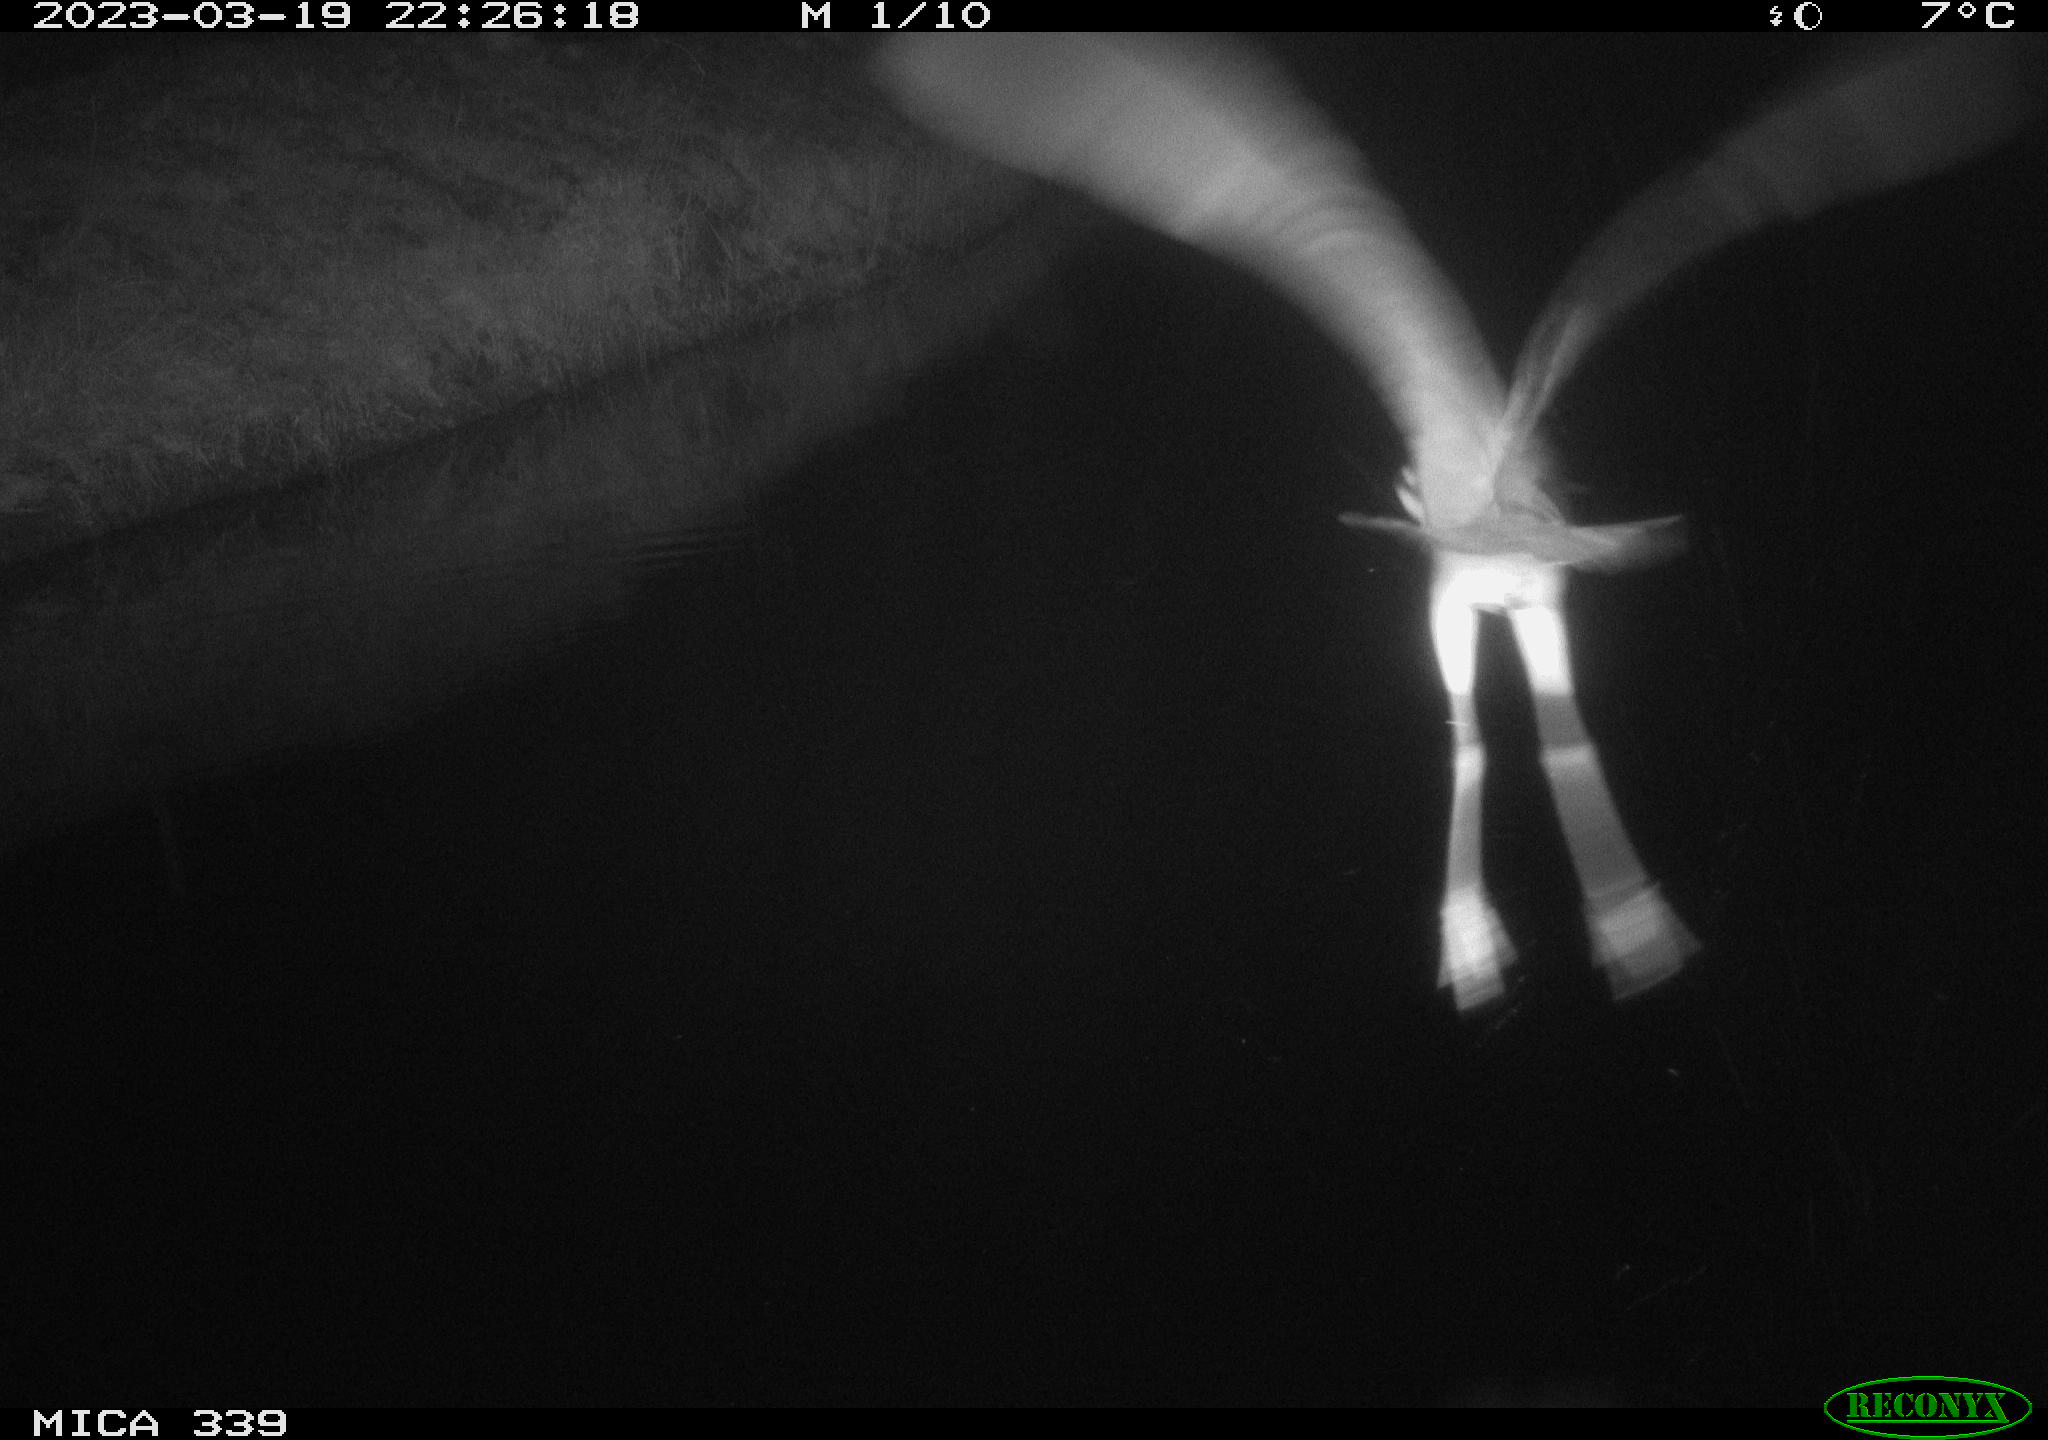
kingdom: Animalia
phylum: Chordata
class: Aves
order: Pelecaniformes
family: Ardeidae
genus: Ardea
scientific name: Ardea cinerea
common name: Grey heron
